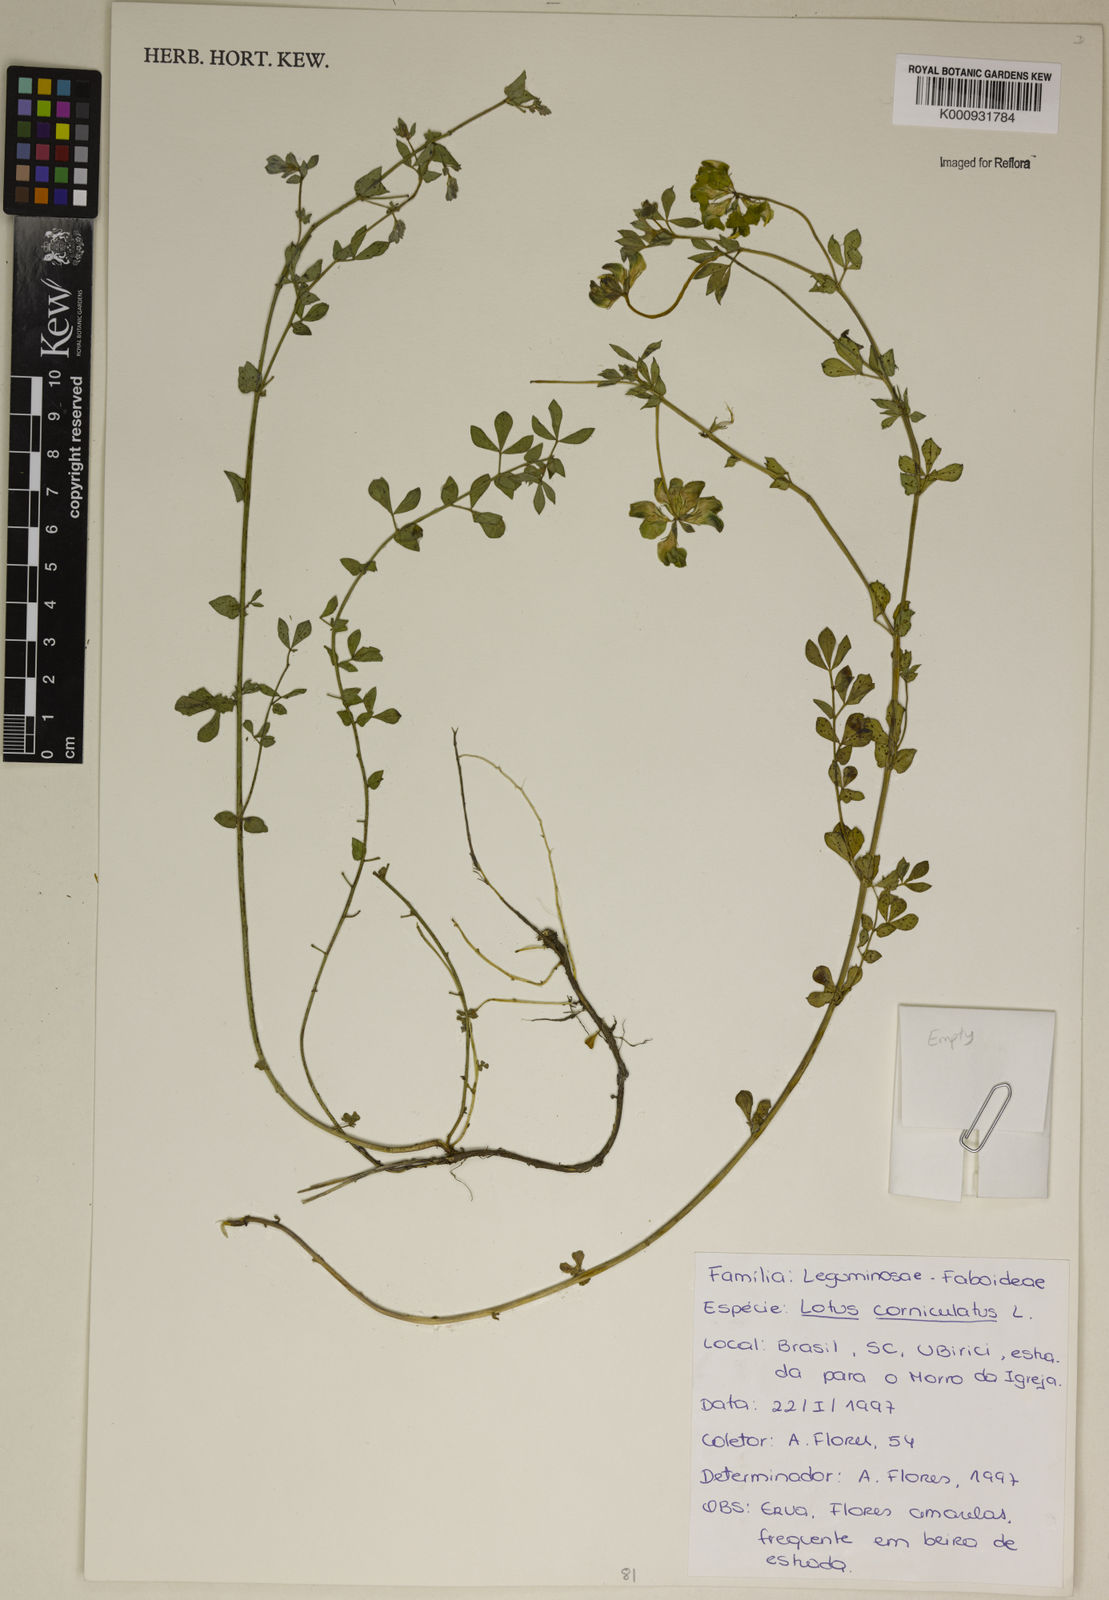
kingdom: Plantae
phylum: Tracheophyta
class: Magnoliopsida
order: Fabales
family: Fabaceae
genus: Lotus
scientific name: Lotus corniculatus
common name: Common bird's-foot-trefoil
